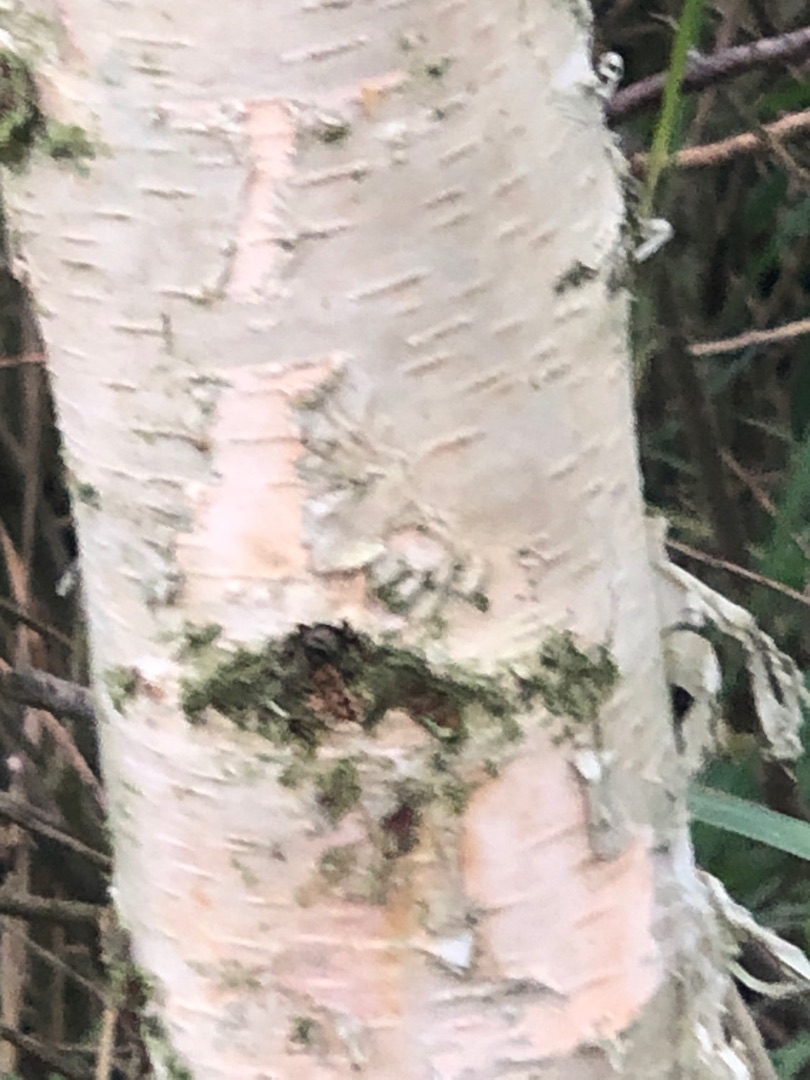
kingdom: Plantae
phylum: Tracheophyta
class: Magnoliopsida
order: Fagales
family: Betulaceae
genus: Betula
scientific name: Betula pendula
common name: Vorte-birk
